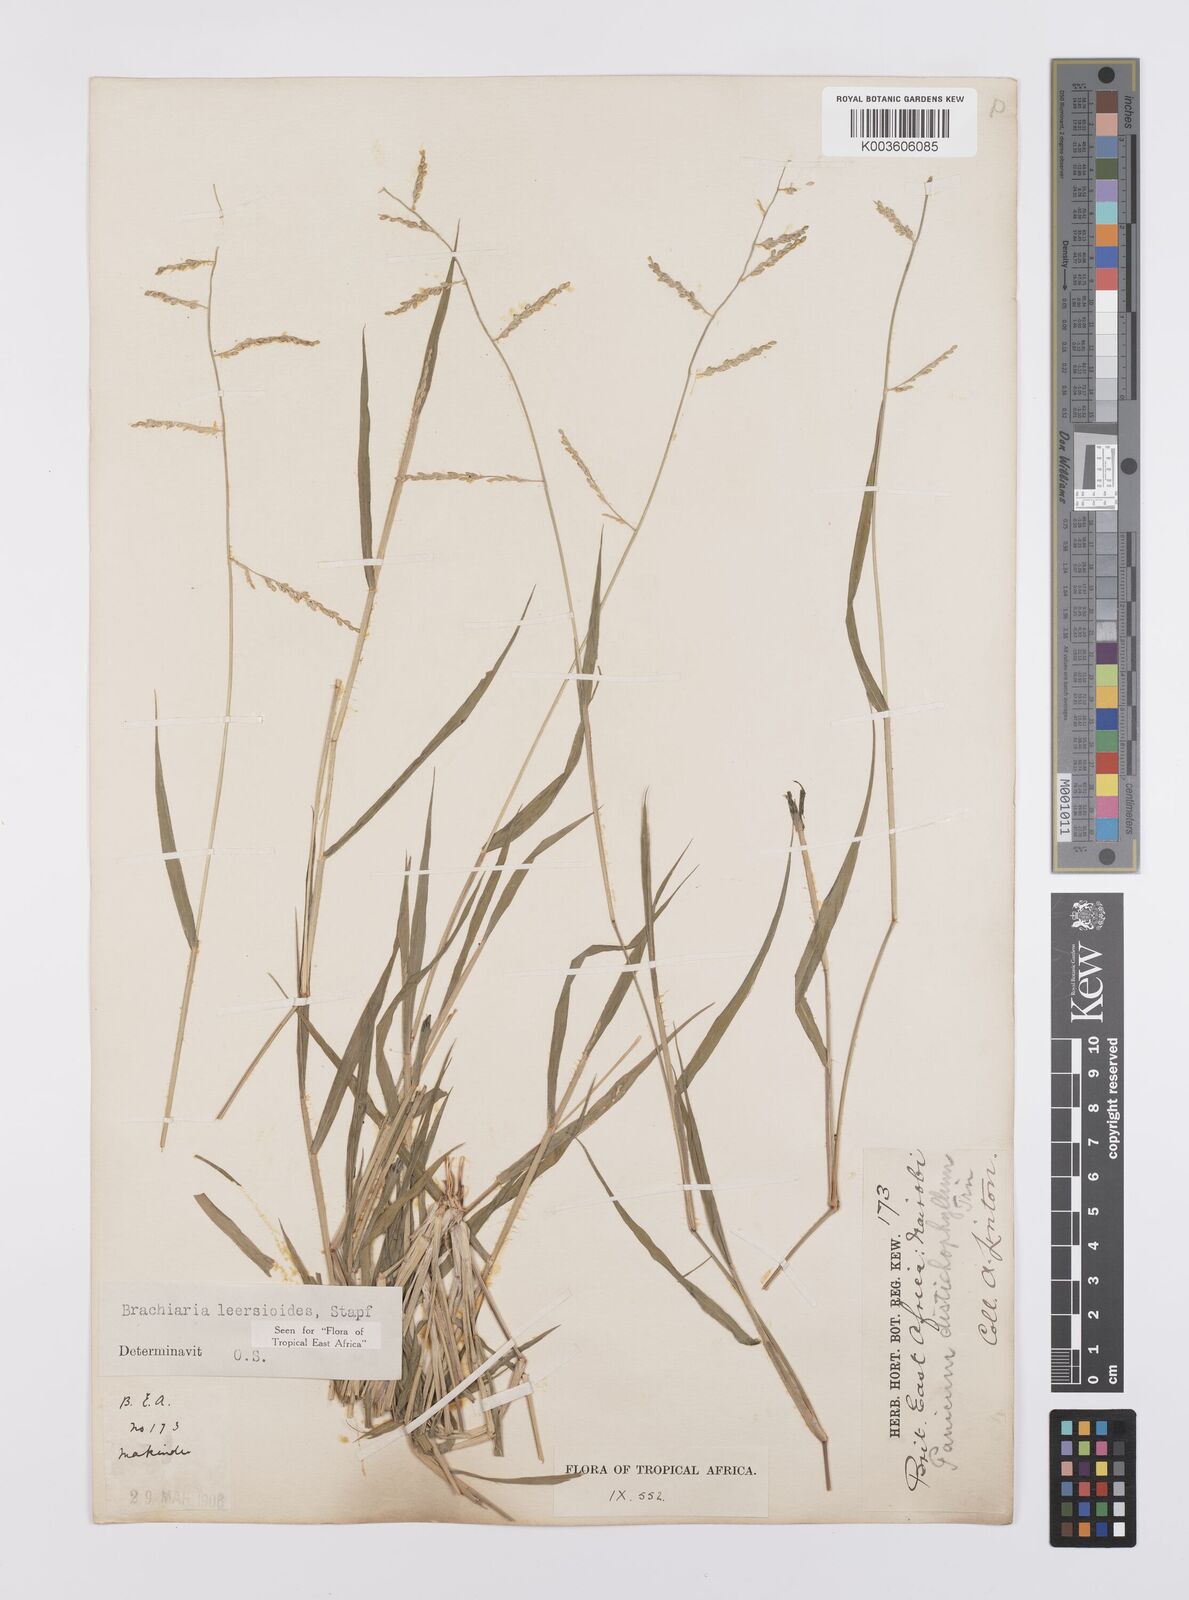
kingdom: Plantae
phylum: Tracheophyta
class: Liliopsida
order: Poales
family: Poaceae
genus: Urochloa
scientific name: Urochloa leersioides
